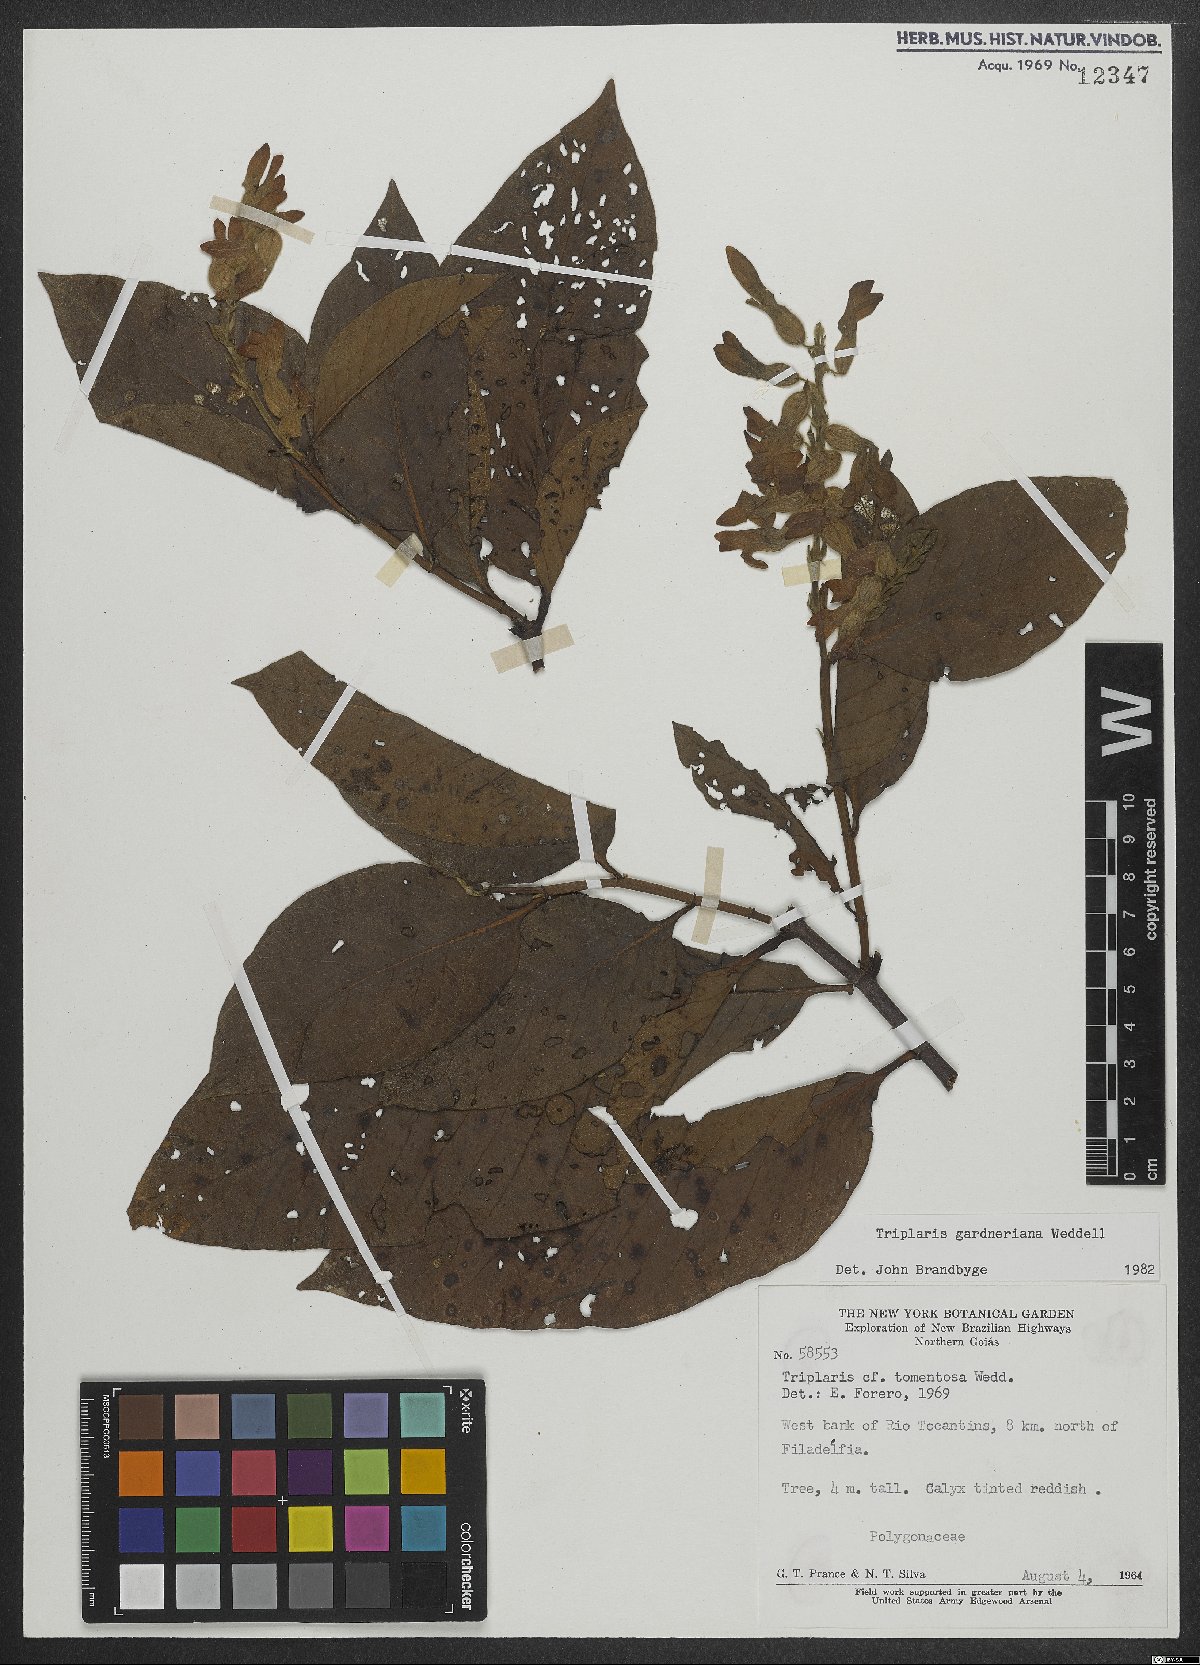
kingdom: Plantae
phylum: Tracheophyta
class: Magnoliopsida
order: Caryophyllales
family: Polygonaceae
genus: Triplaris
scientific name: Triplaris gardneriana
